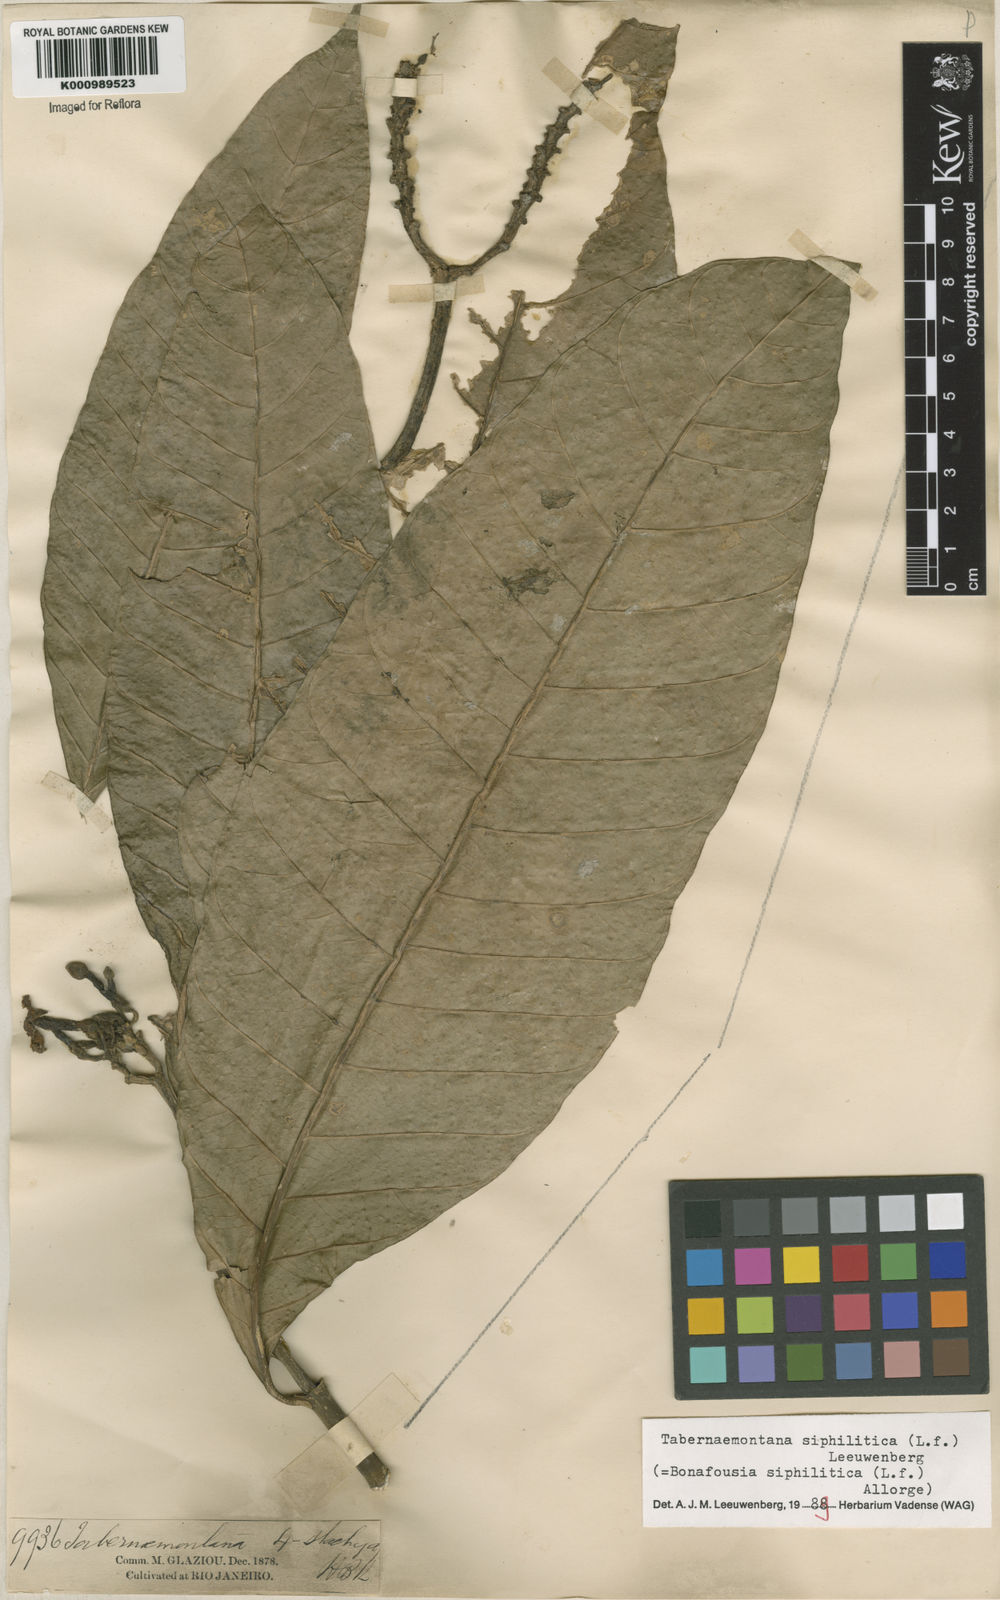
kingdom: Plantae
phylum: Tracheophyta
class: Magnoliopsida
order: Gentianales
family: Apocynaceae
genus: Tabernaemontana
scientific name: Tabernaemontana siphilitica
